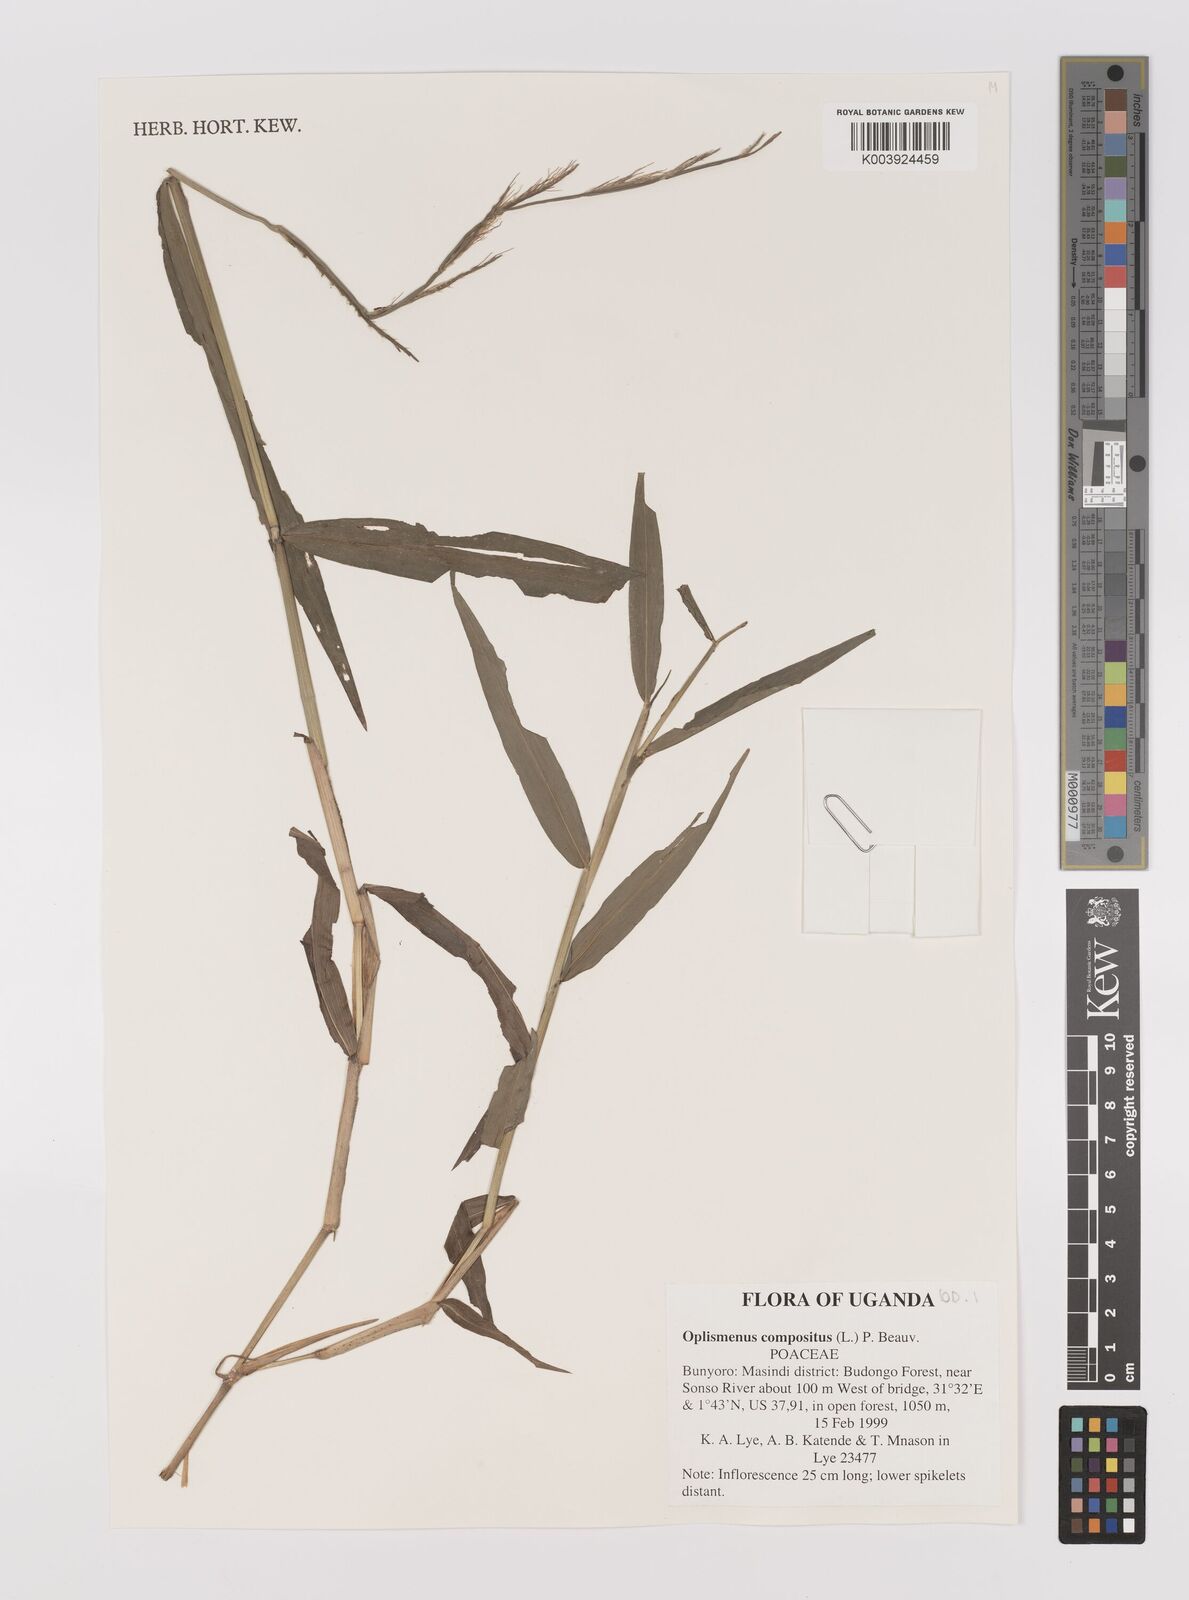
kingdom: Plantae
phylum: Tracheophyta
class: Liliopsida
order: Poales
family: Poaceae
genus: Oplismenus
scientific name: Oplismenus compositus
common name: Running mountain grass
